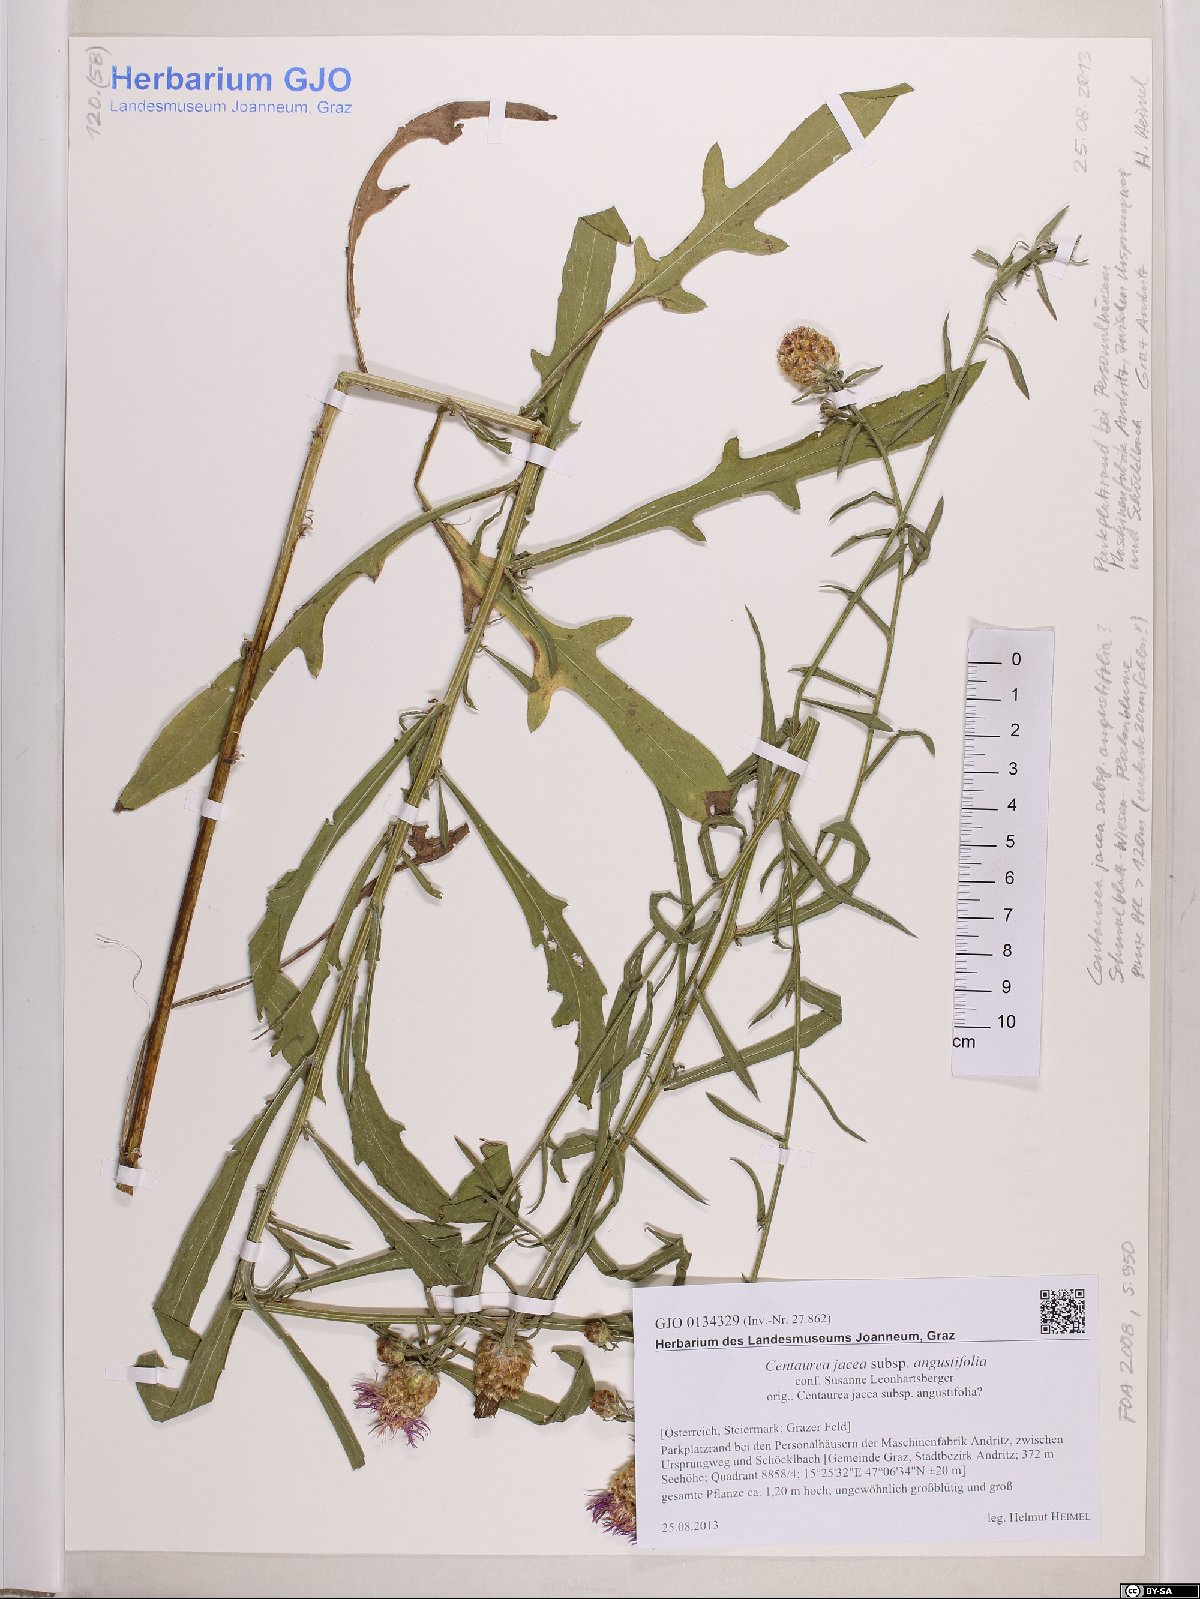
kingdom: Plantae
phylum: Tracheophyta
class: Magnoliopsida
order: Asterales
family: Asteraceae
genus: Centaurea
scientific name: Centaurea pannonica
